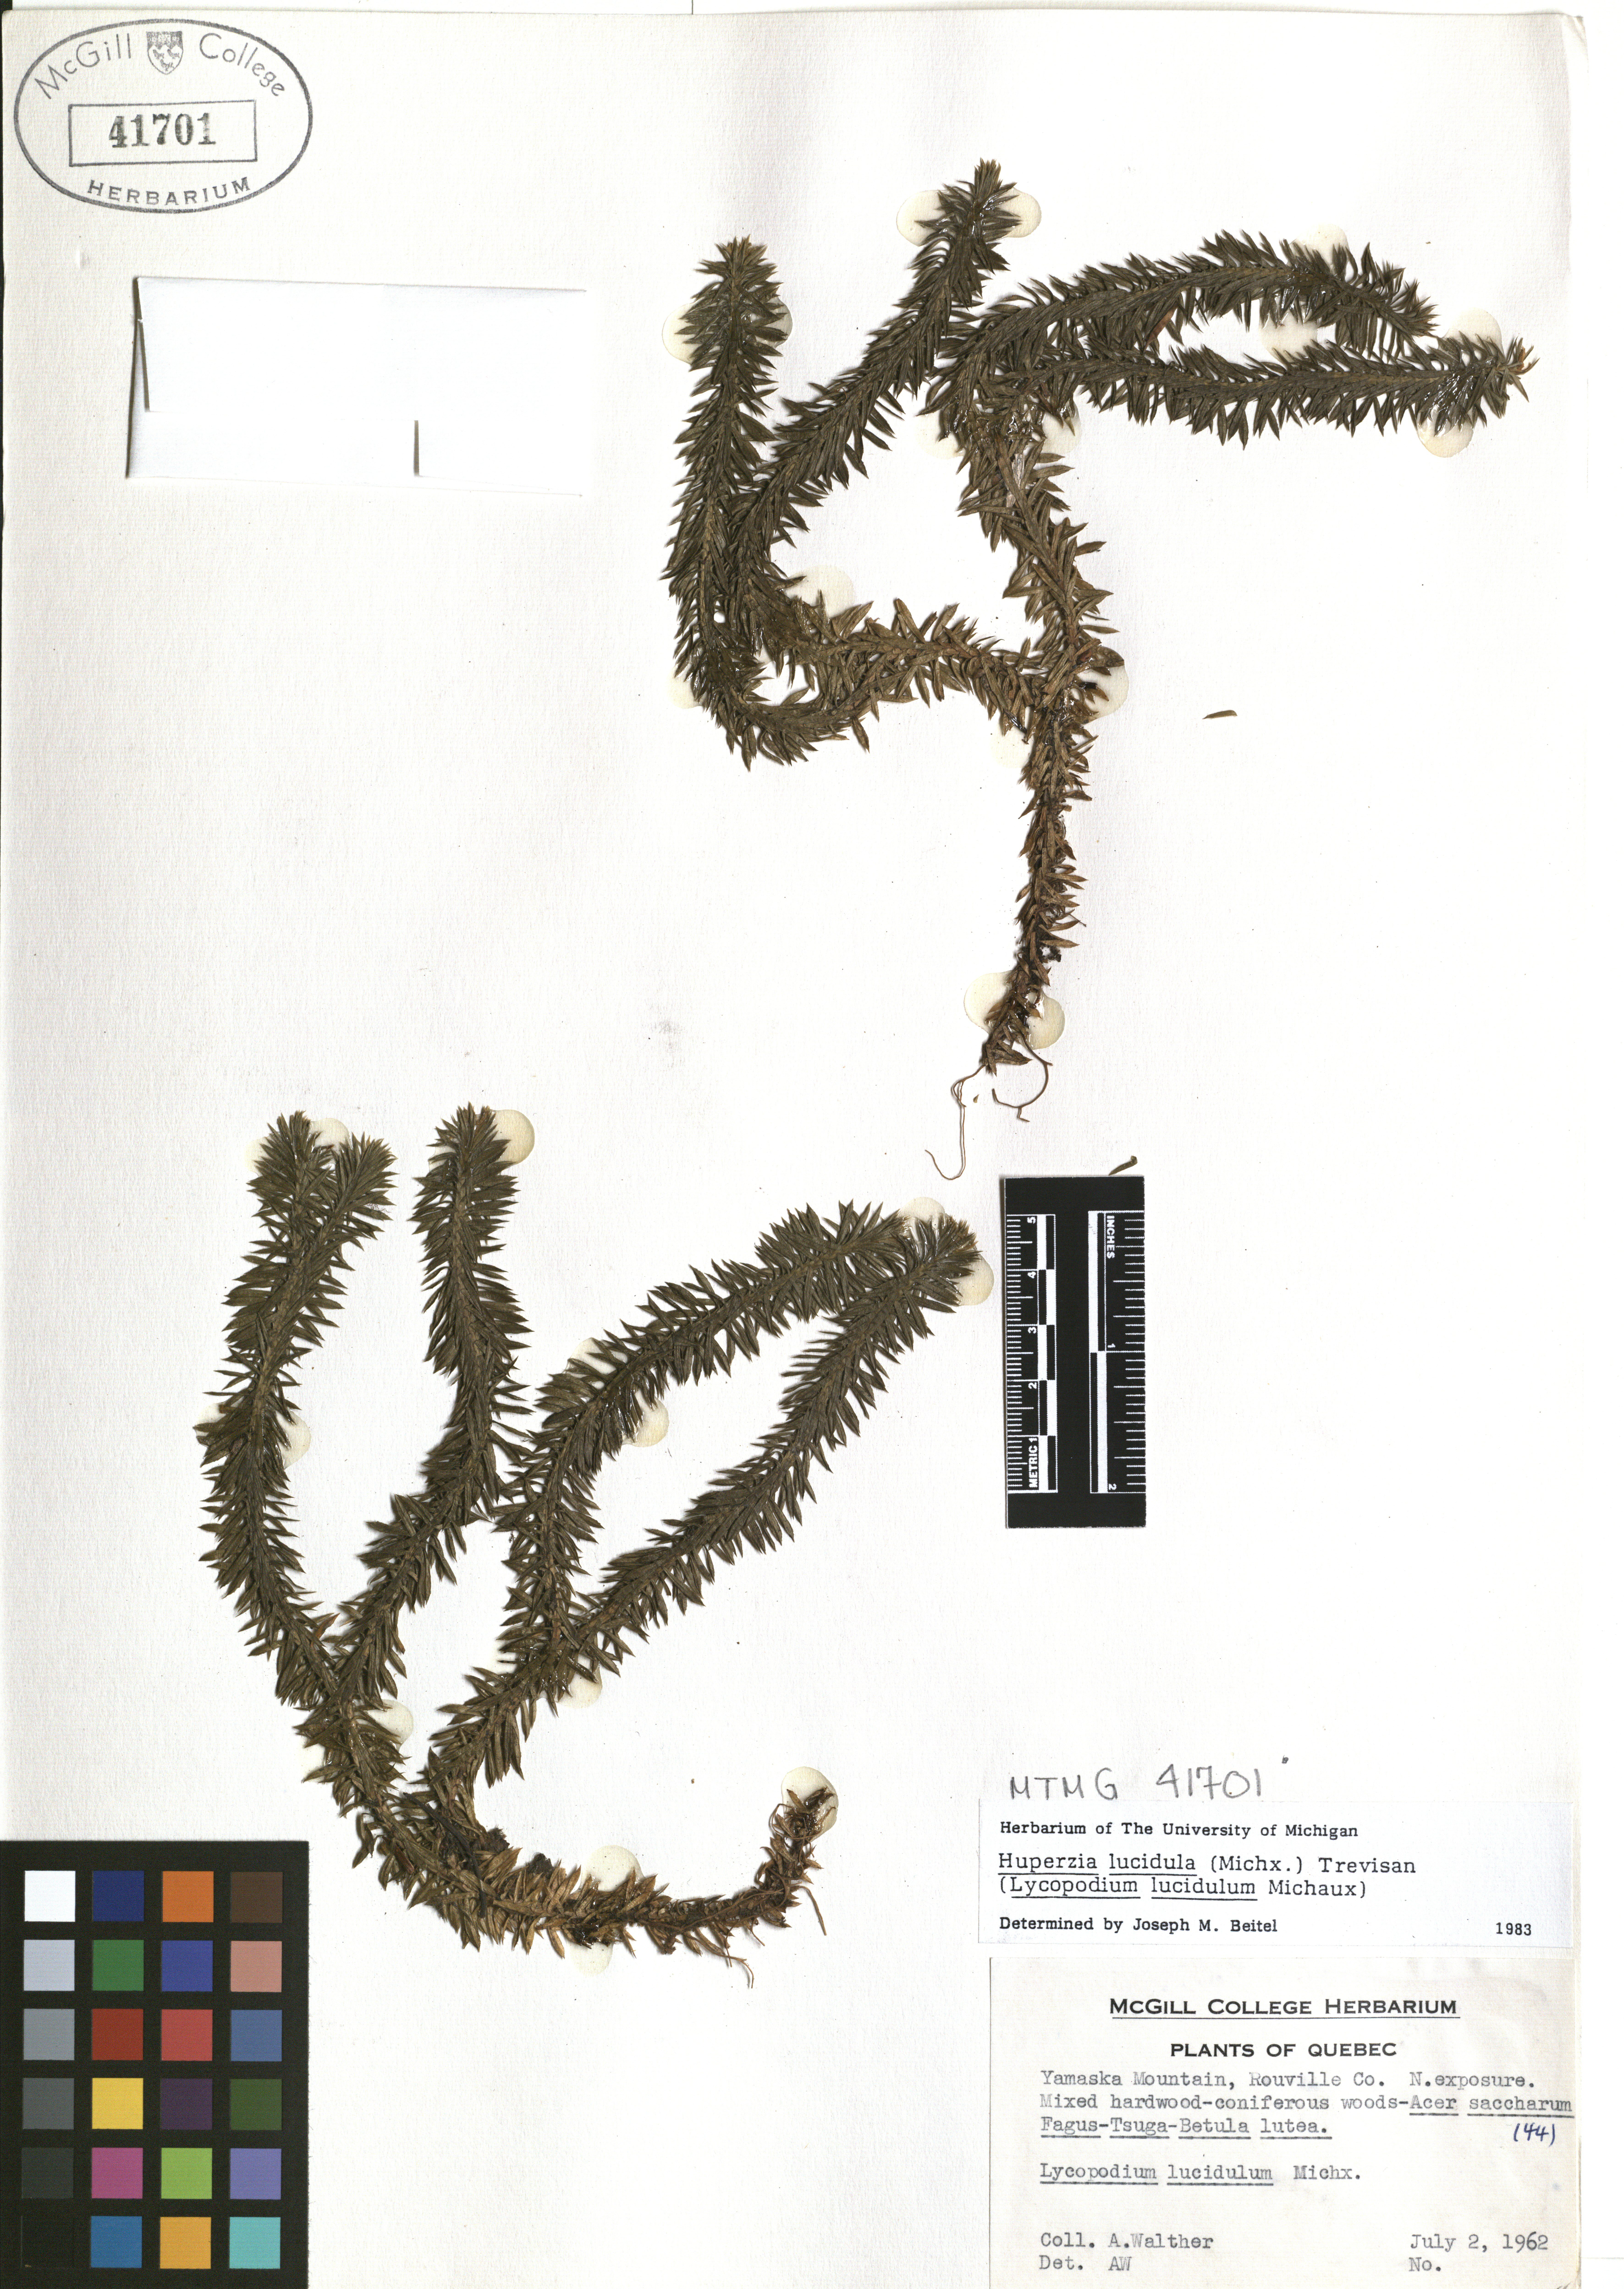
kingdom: Plantae
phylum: Tracheophyta
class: Lycopodiopsida
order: Lycopodiales
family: Lycopodiaceae
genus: Huperzia
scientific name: Huperzia lucidula
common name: Shining clubmoss
